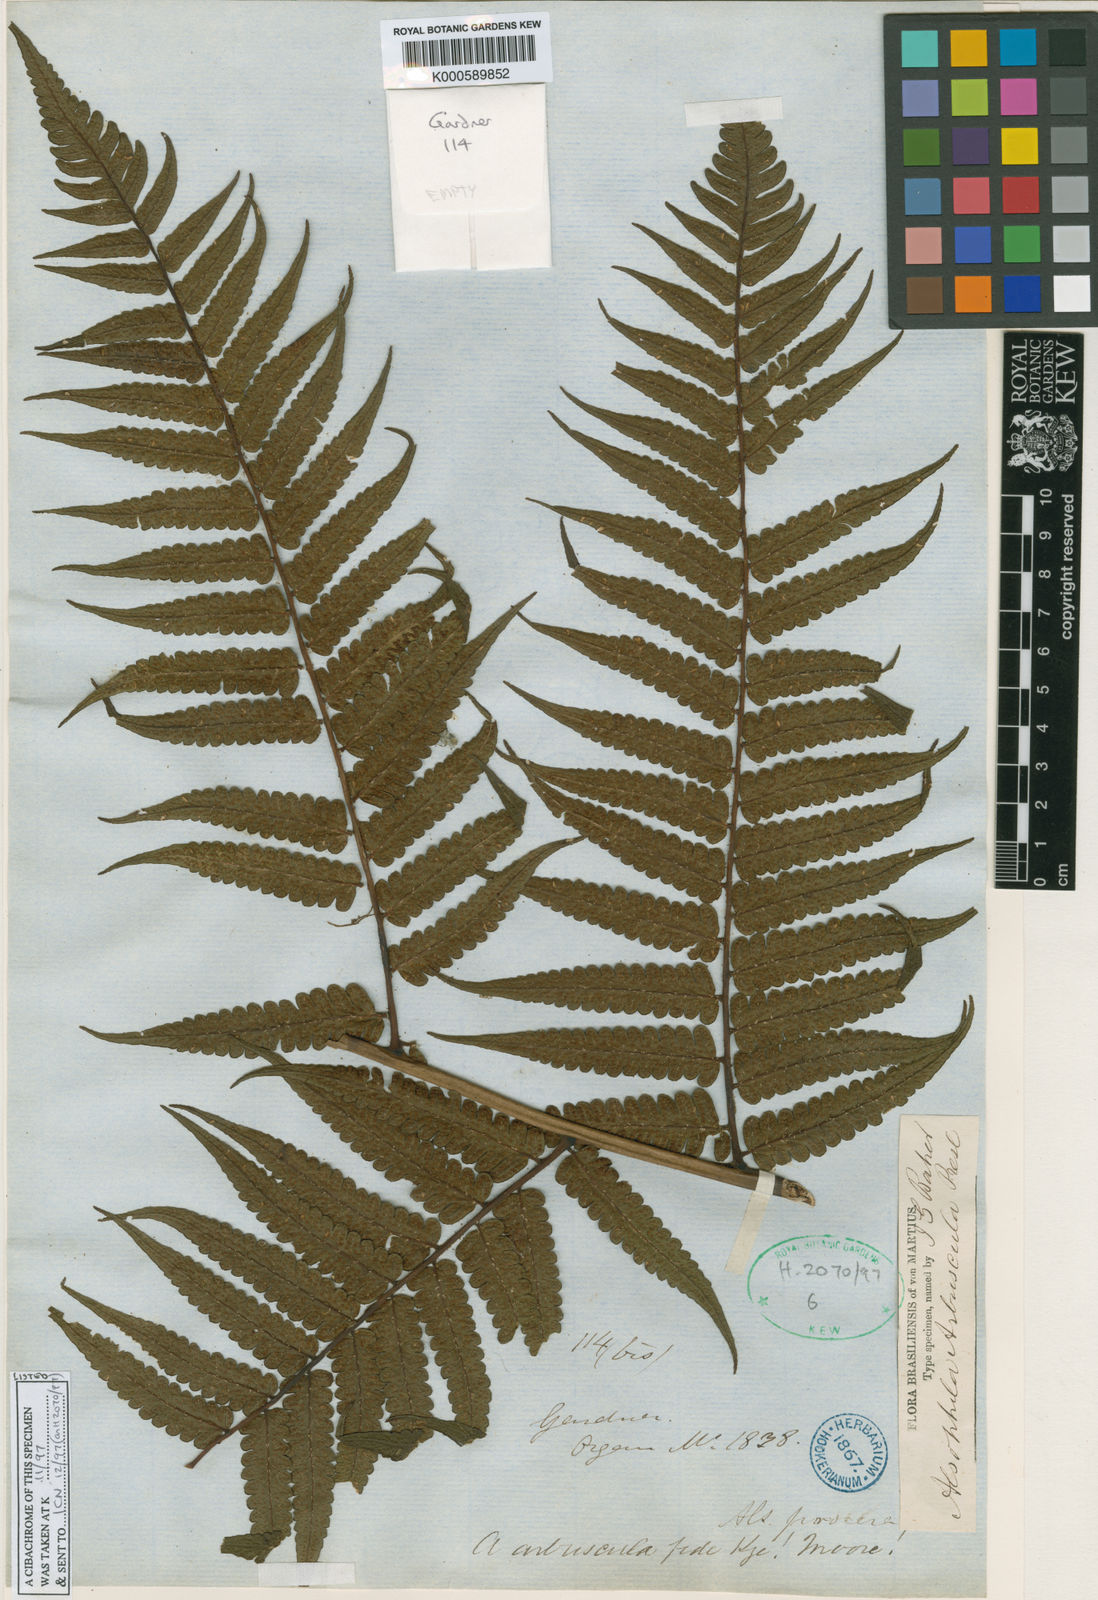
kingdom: Plantae
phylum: Tracheophyta
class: Polypodiopsida
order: Cyatheales
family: Cyatheaceae
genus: Cyathea
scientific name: Cyathea
